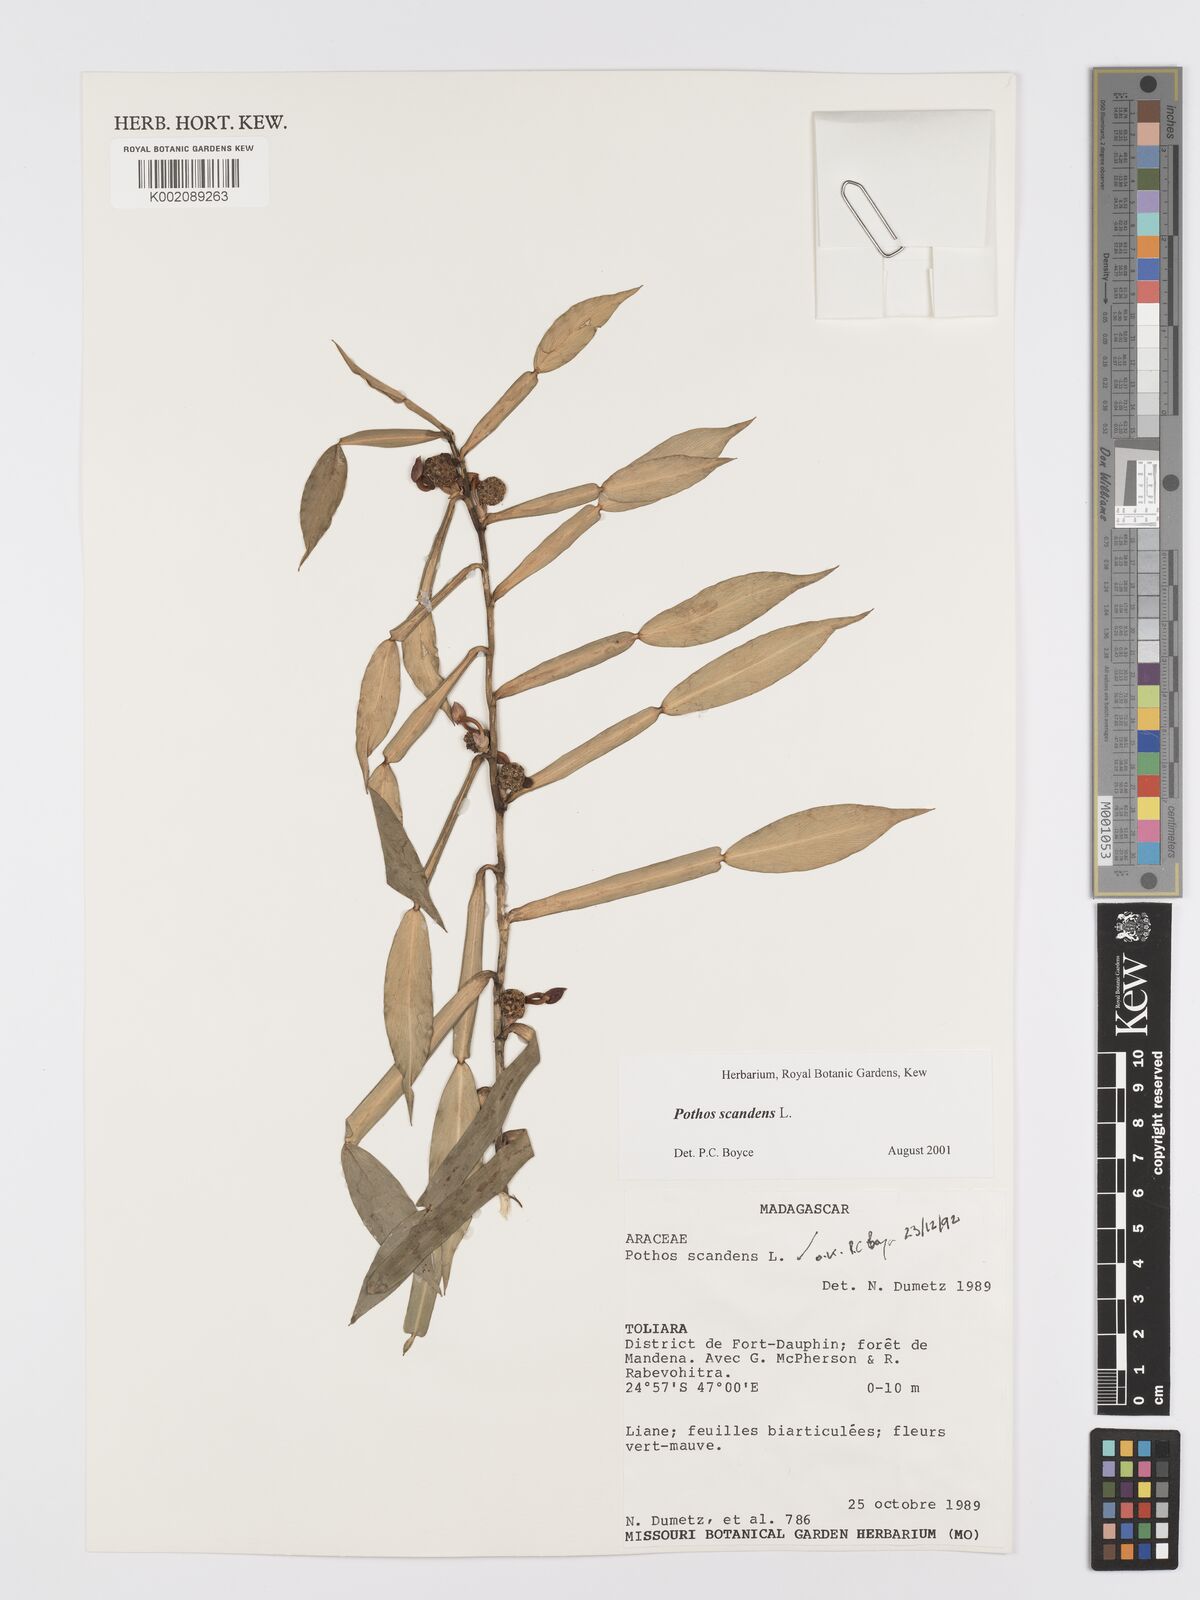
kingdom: Plantae
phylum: Tracheophyta
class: Liliopsida
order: Alismatales
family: Araceae
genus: Pothos
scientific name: Pothos scandens
